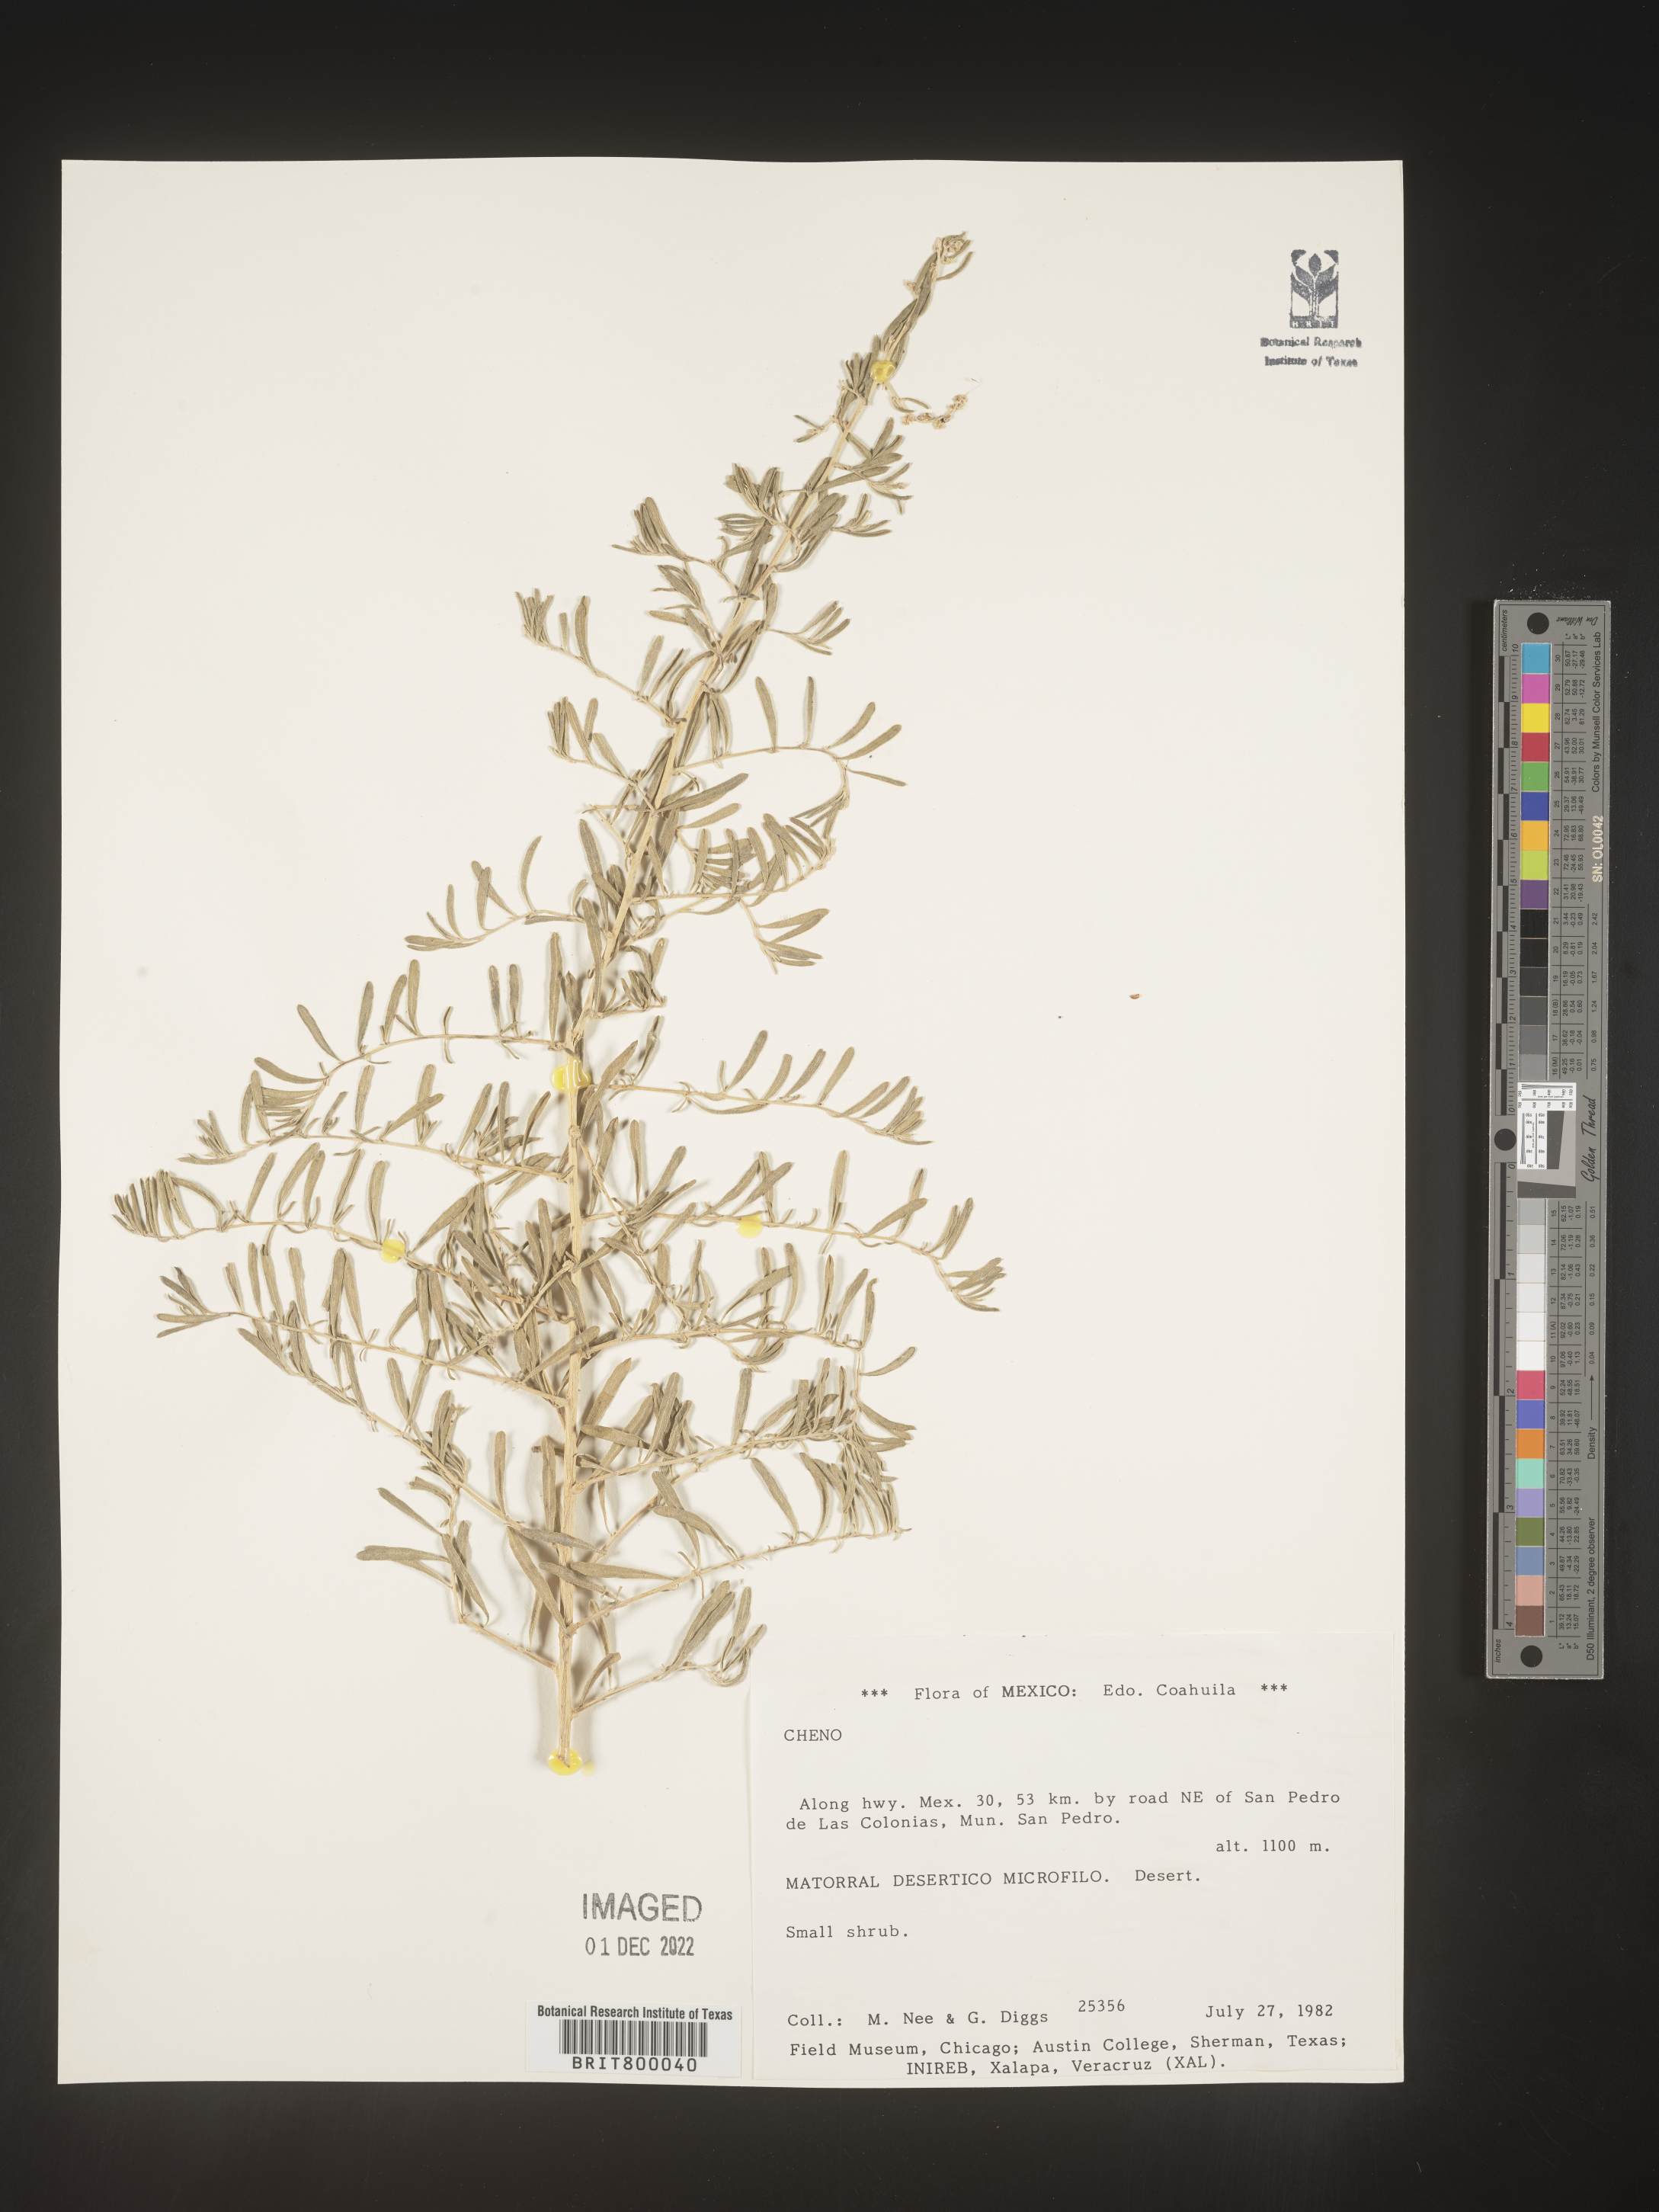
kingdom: Plantae
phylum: Tracheophyta
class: Magnoliopsida
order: Caryophyllales
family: Amaranthaceae
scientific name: Amaranthaceae
